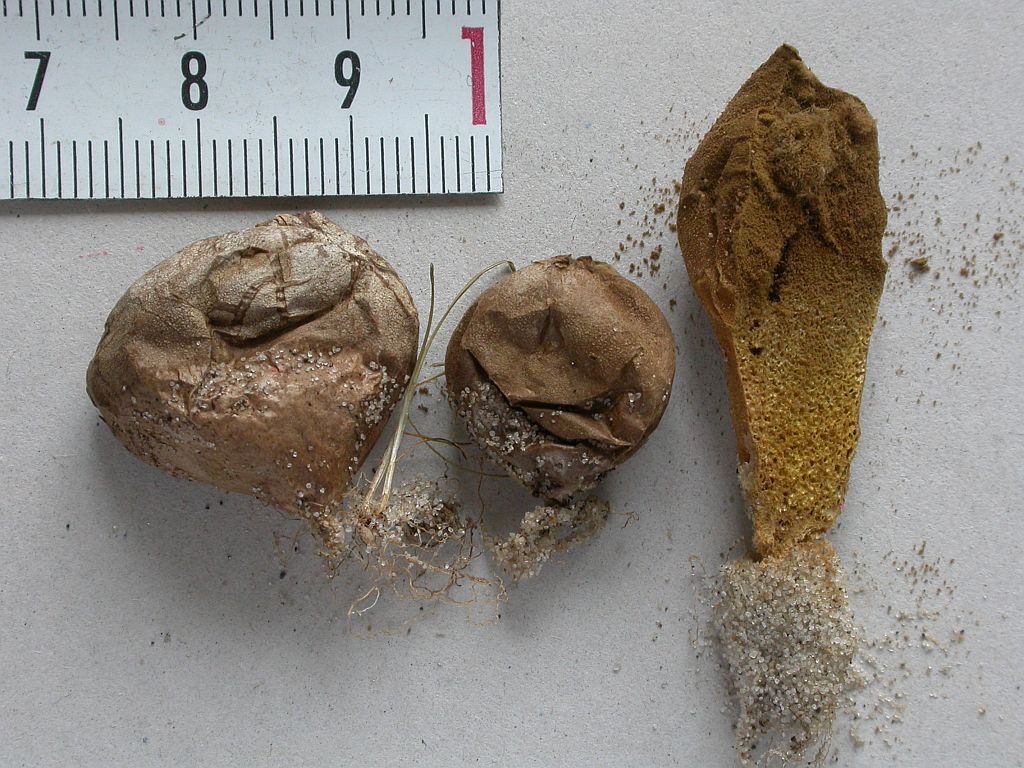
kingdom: Fungi
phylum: Basidiomycota
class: Agaricomycetes
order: Agaricales
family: Lycoperdaceae
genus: Lycoperdon
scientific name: Lycoperdon lividum
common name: mark-støvbold
